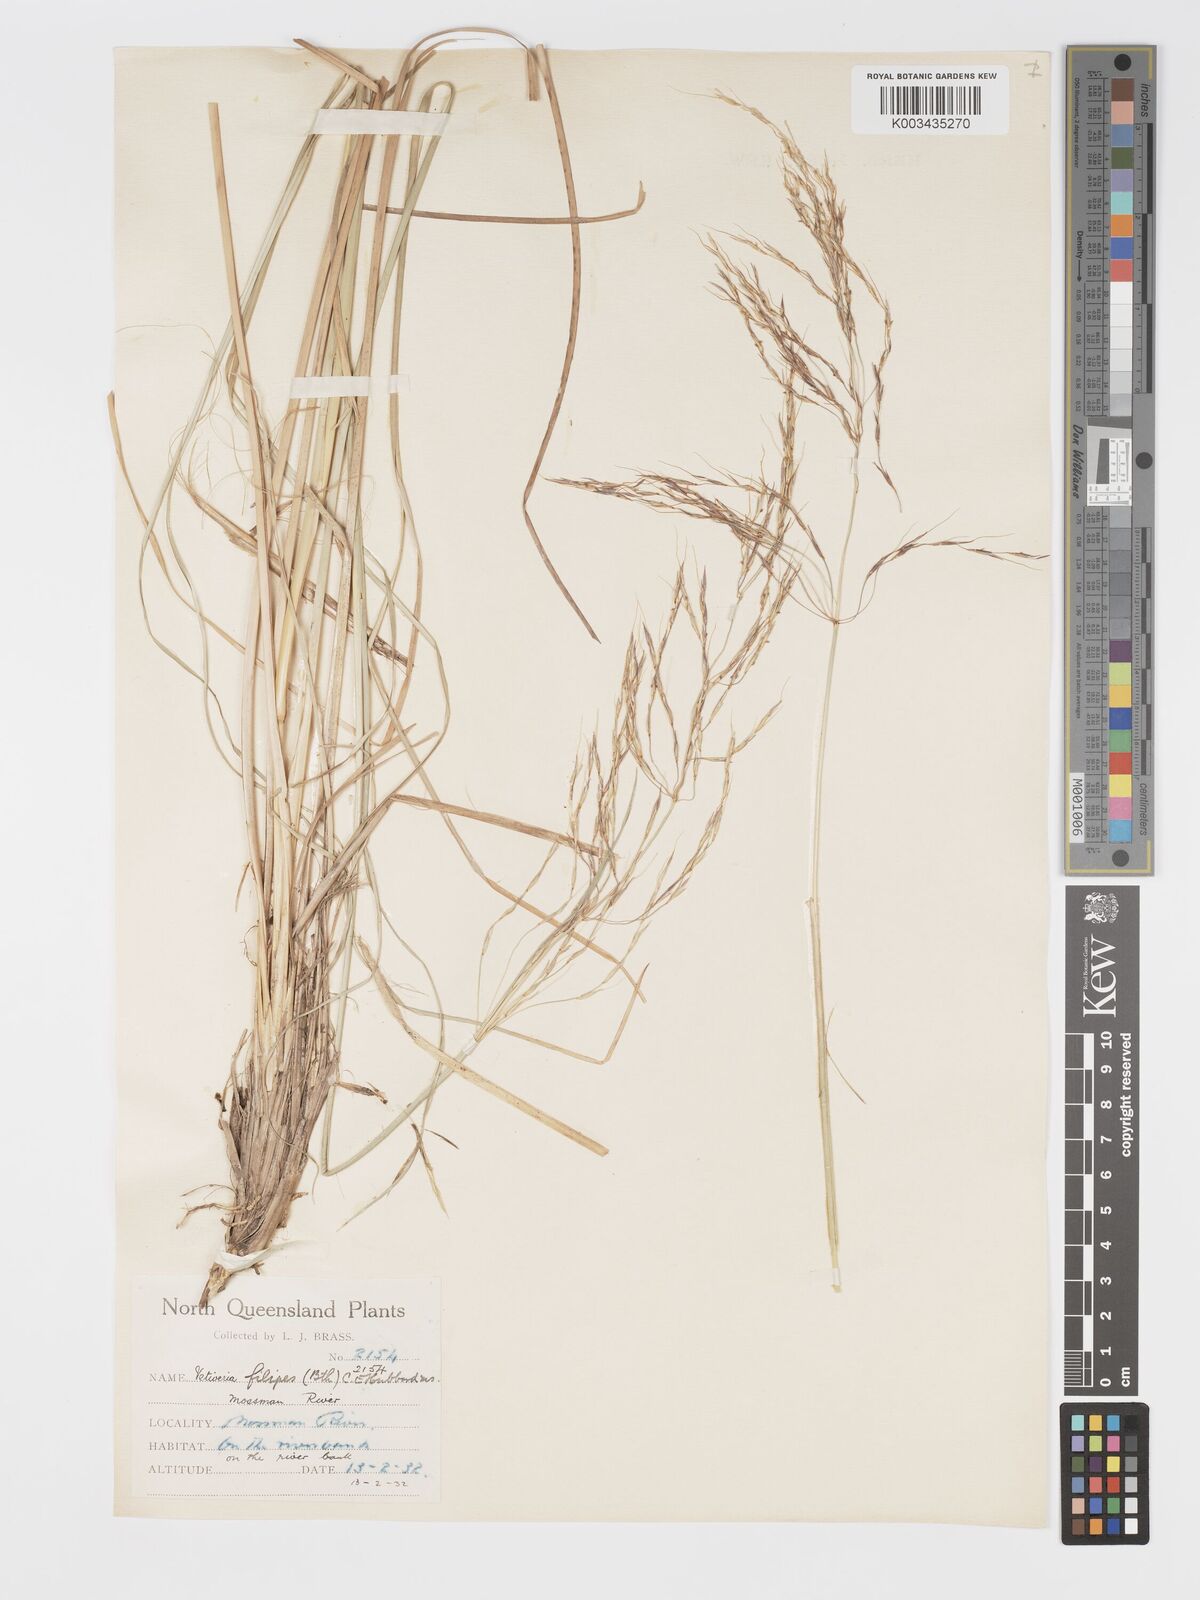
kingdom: Plantae
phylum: Tracheophyta
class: Liliopsida
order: Poales
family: Poaceae
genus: Chrysopogon
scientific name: Chrysopogon filipes
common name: Australian vetiver
